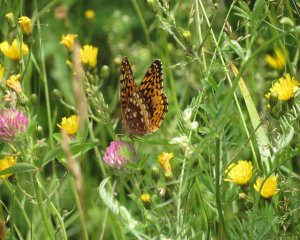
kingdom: Animalia
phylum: Arthropoda
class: Insecta
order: Lepidoptera
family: Nymphalidae
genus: Speyeria
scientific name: Speyeria cybele
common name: Great Spangled Fritillary
